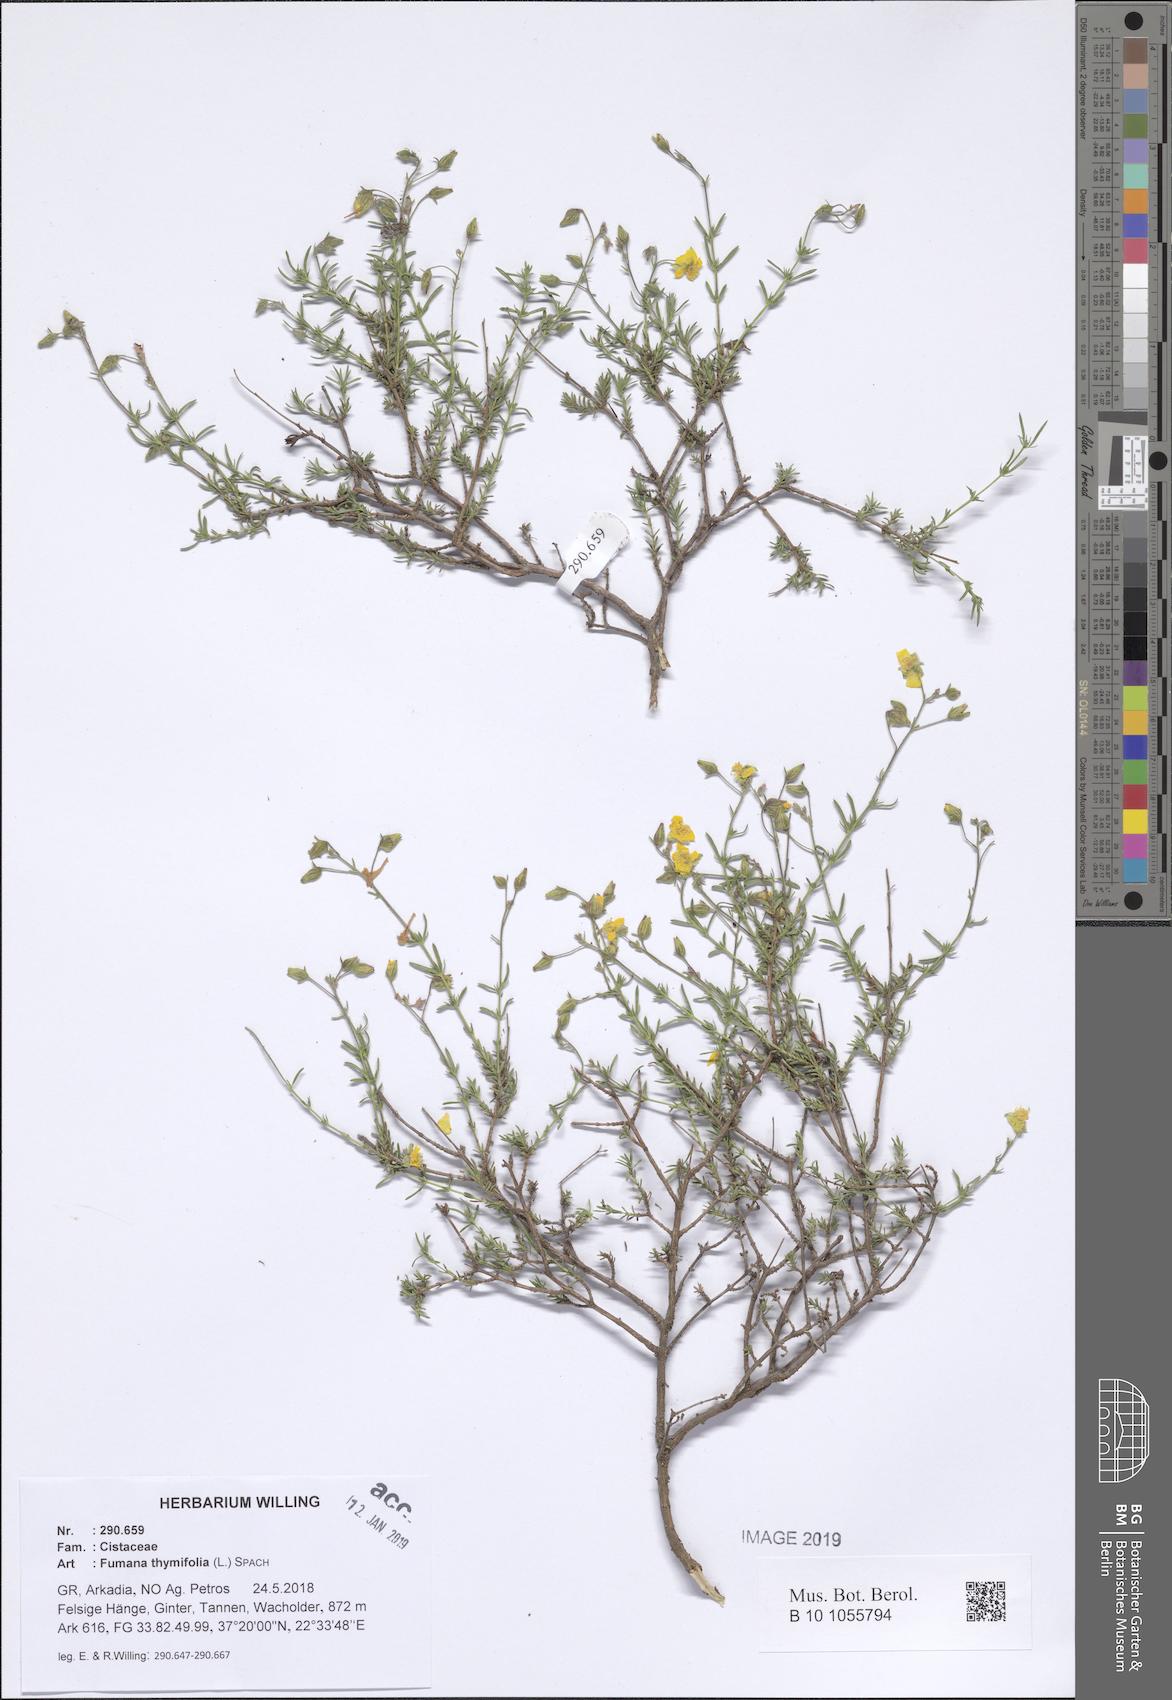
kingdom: Plantae
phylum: Tracheophyta
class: Magnoliopsida
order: Malvales
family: Cistaceae
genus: Fumana
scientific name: Fumana thymifolia
